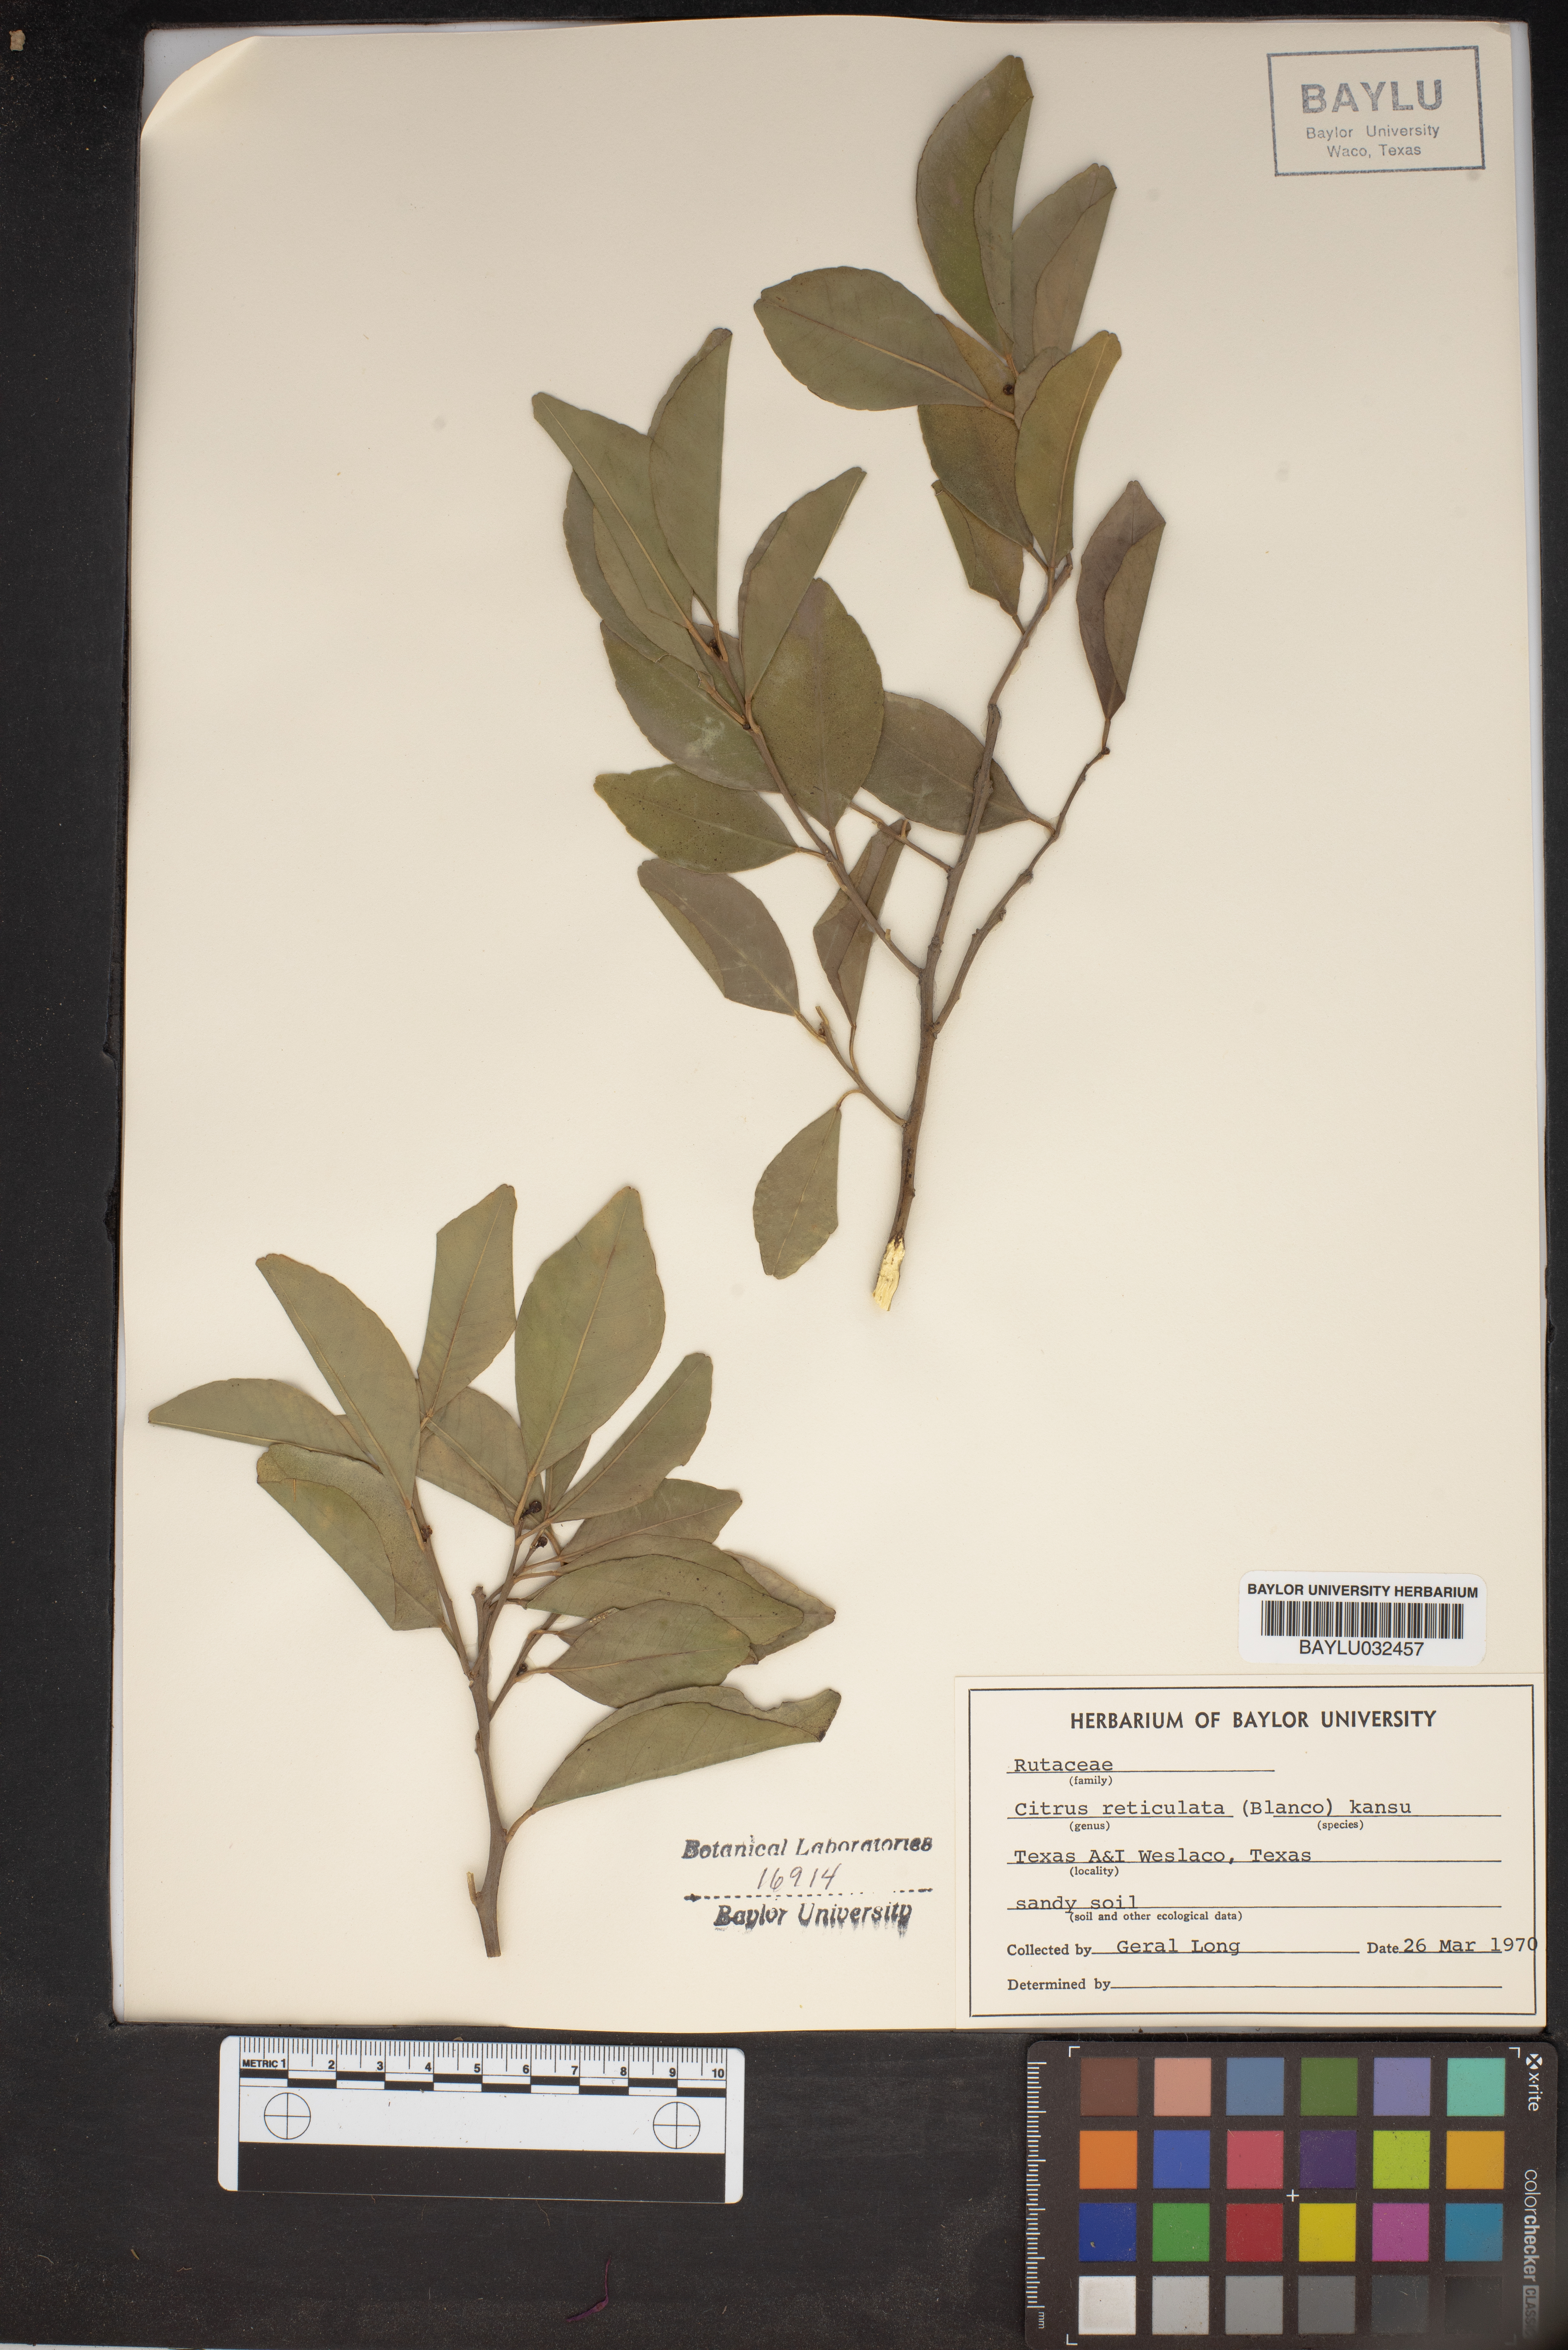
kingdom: Plantae
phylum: Tracheophyta
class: Magnoliopsida
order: Sapindales
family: Rutaceae
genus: Citrus
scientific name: Citrus reticulata
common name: Tangerine
